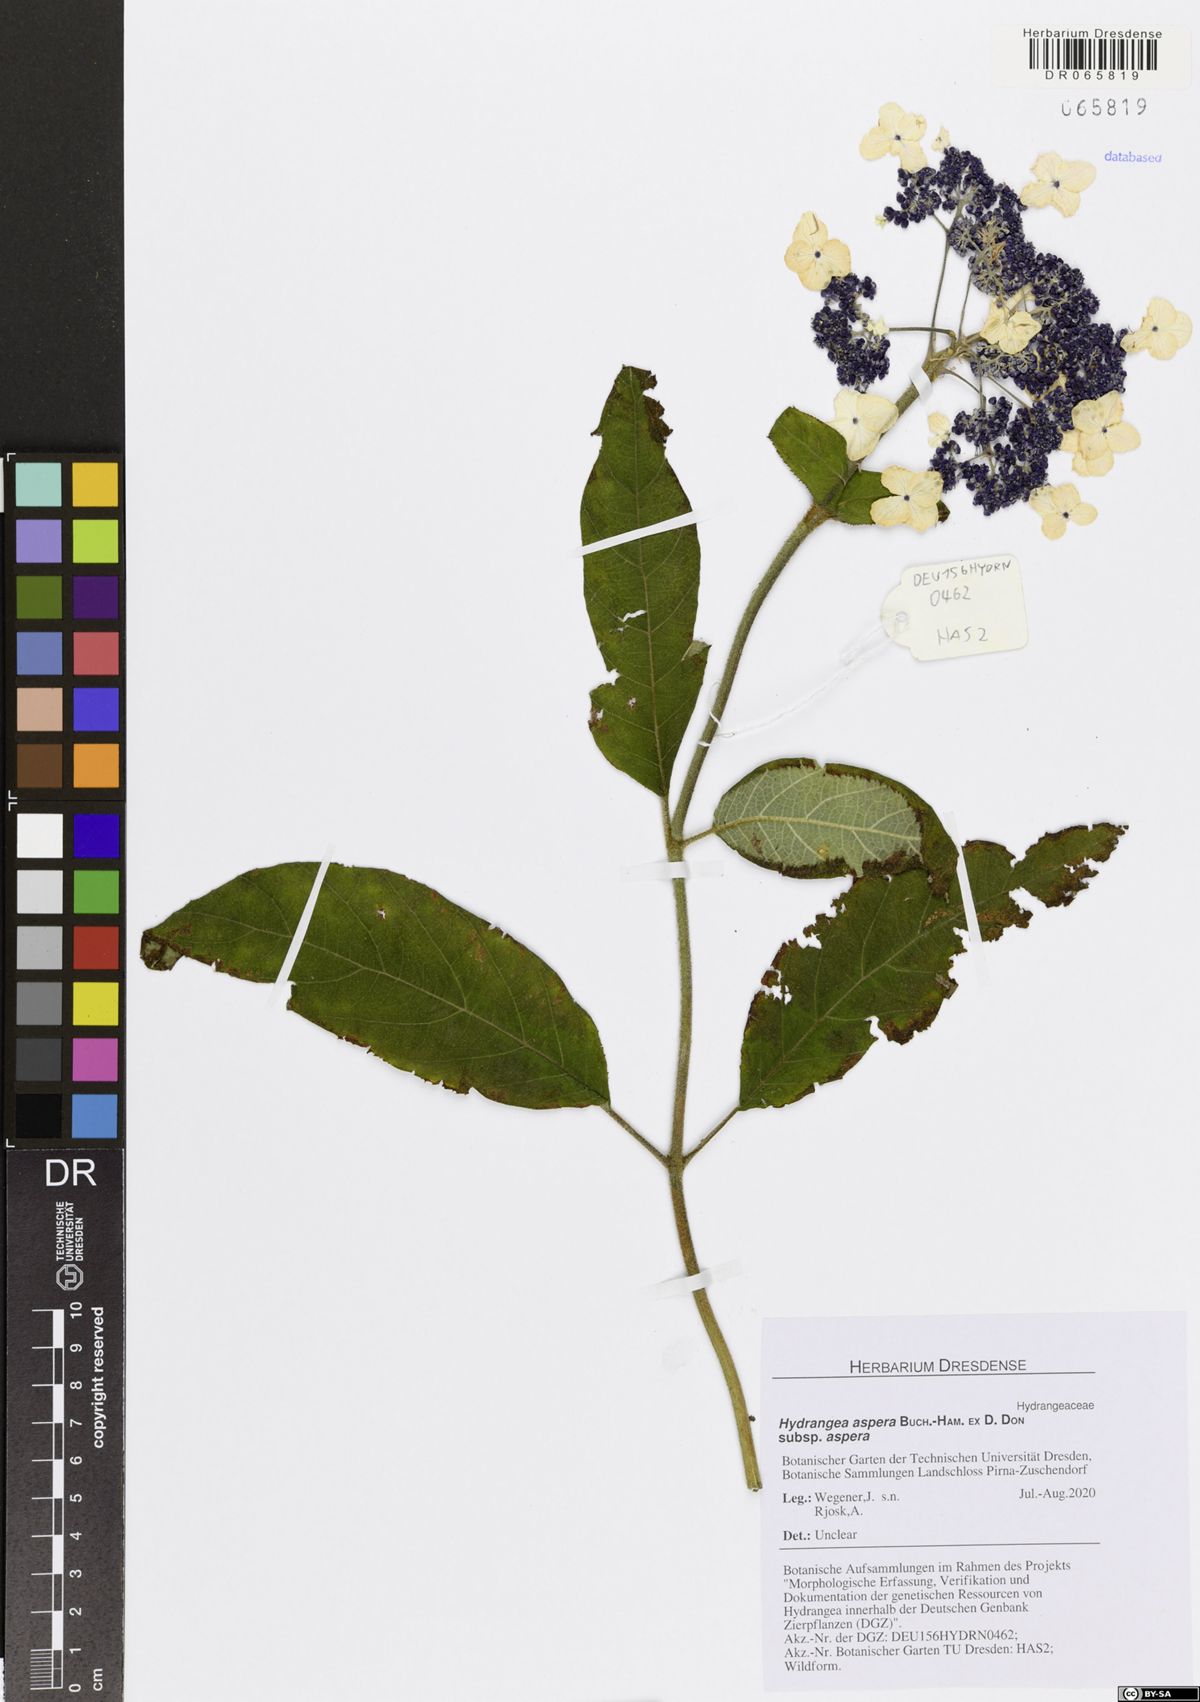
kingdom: Plantae
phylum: Tracheophyta
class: Magnoliopsida
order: Cornales
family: Hydrangeaceae
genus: Hydrangea
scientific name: Hydrangea aspera
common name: Rough-leaf hydrangea
